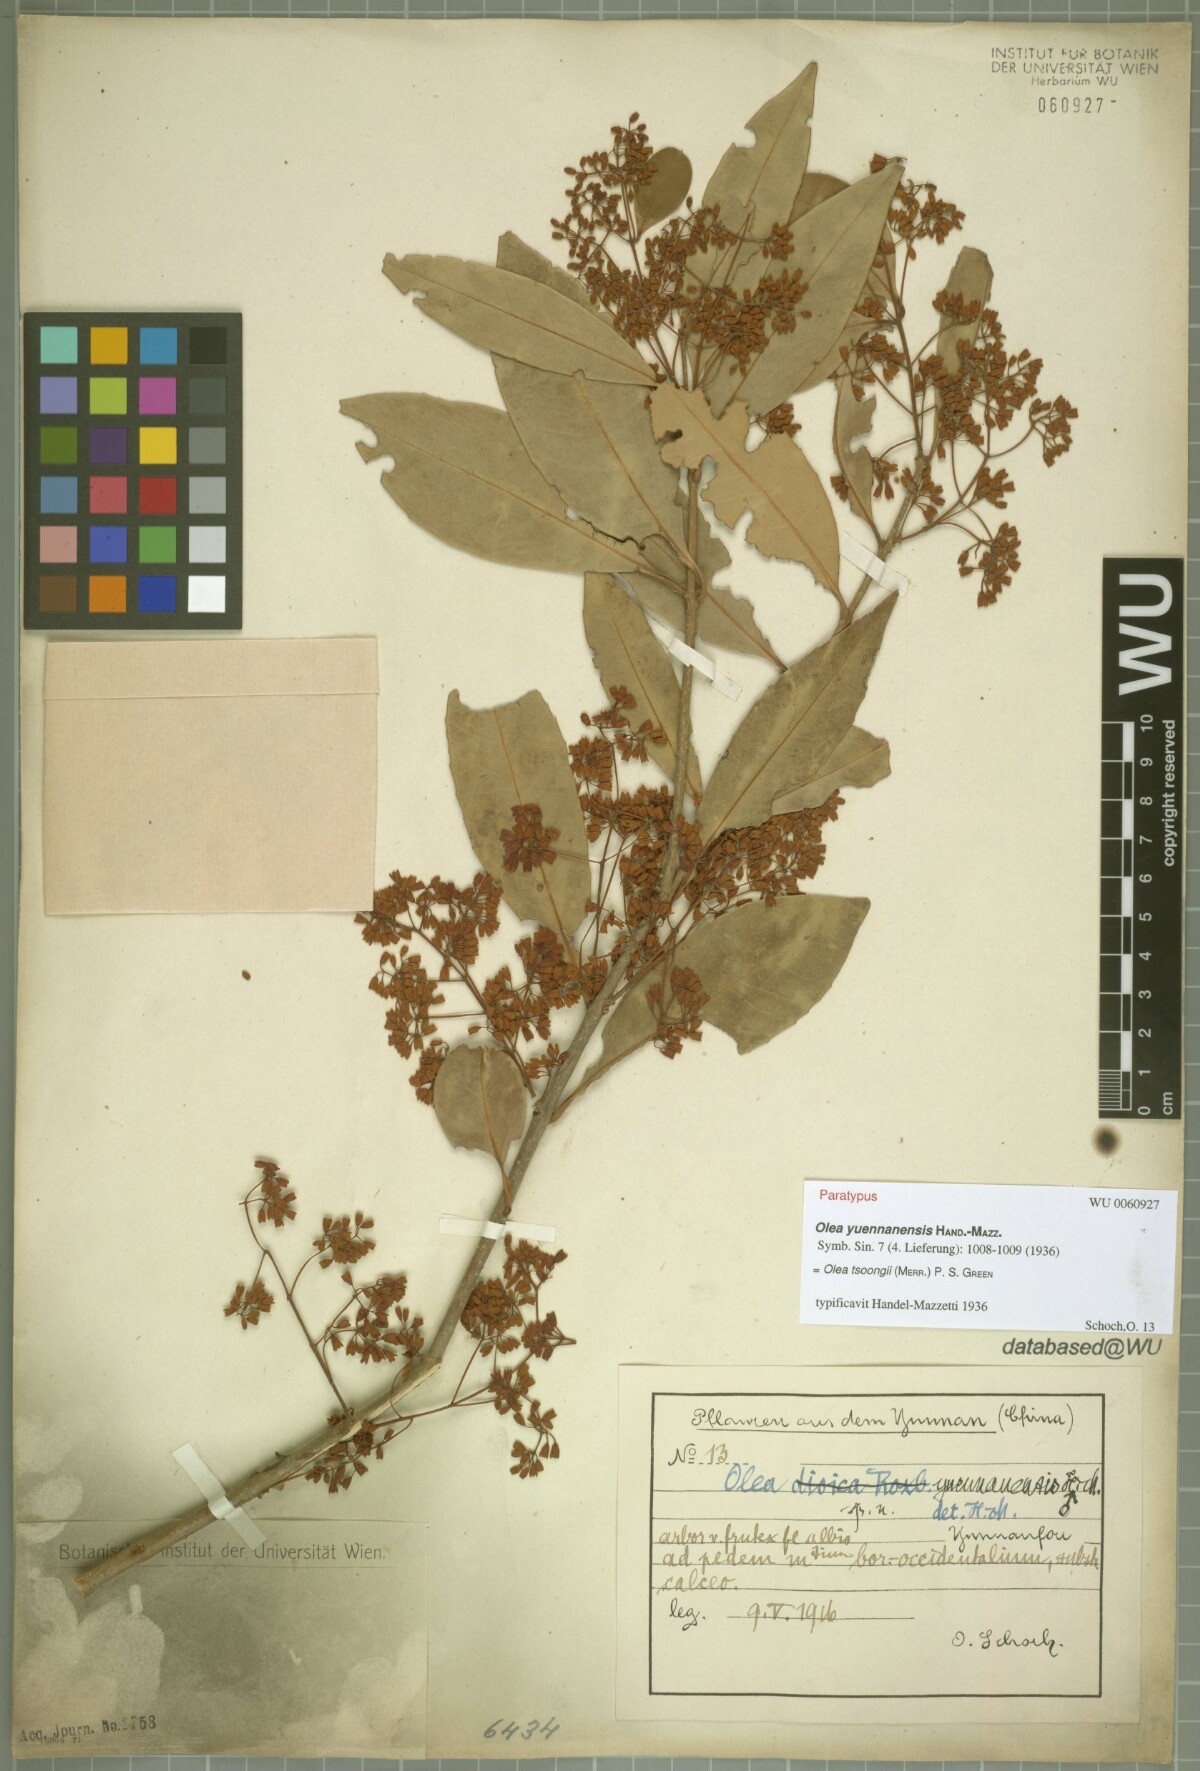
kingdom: Plantae
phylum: Tracheophyta
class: Magnoliopsida
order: Lamiales
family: Oleaceae
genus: Tetrapilus
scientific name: Tetrapilus tsoongii
